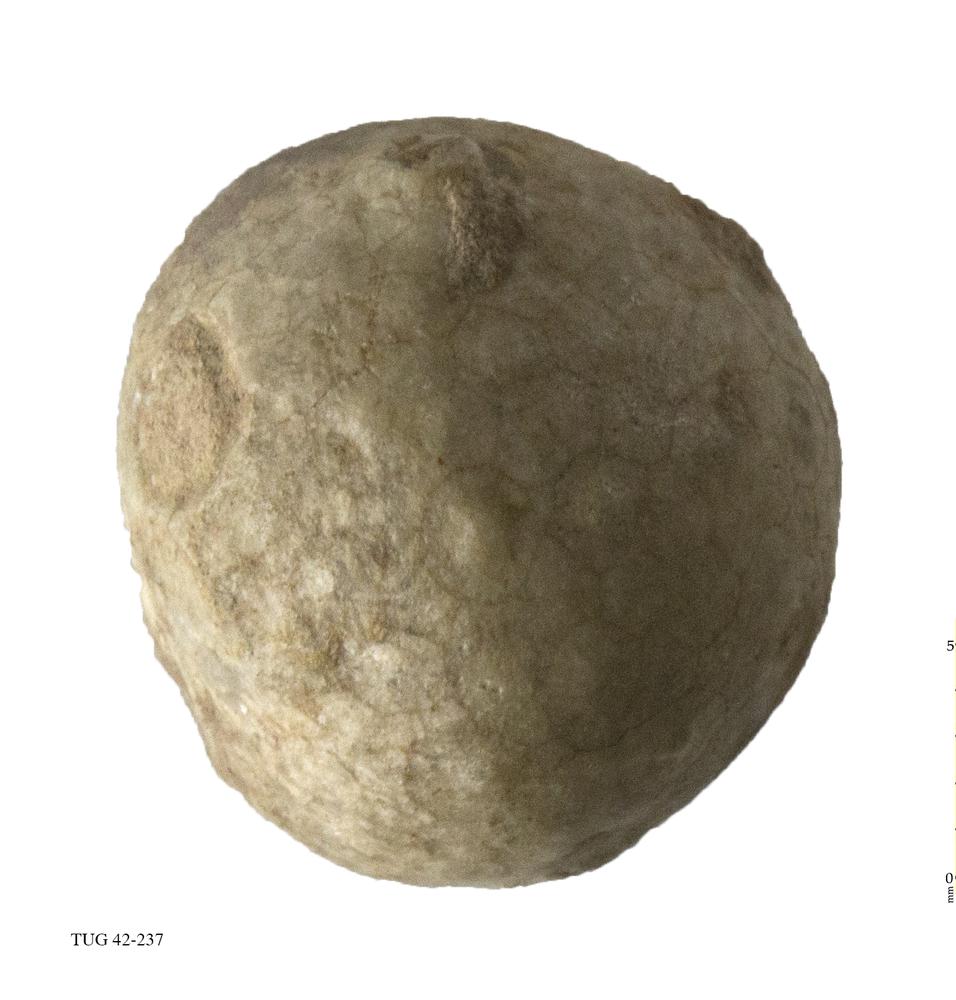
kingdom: Animalia
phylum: Echinodermata
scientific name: Echinodermata
